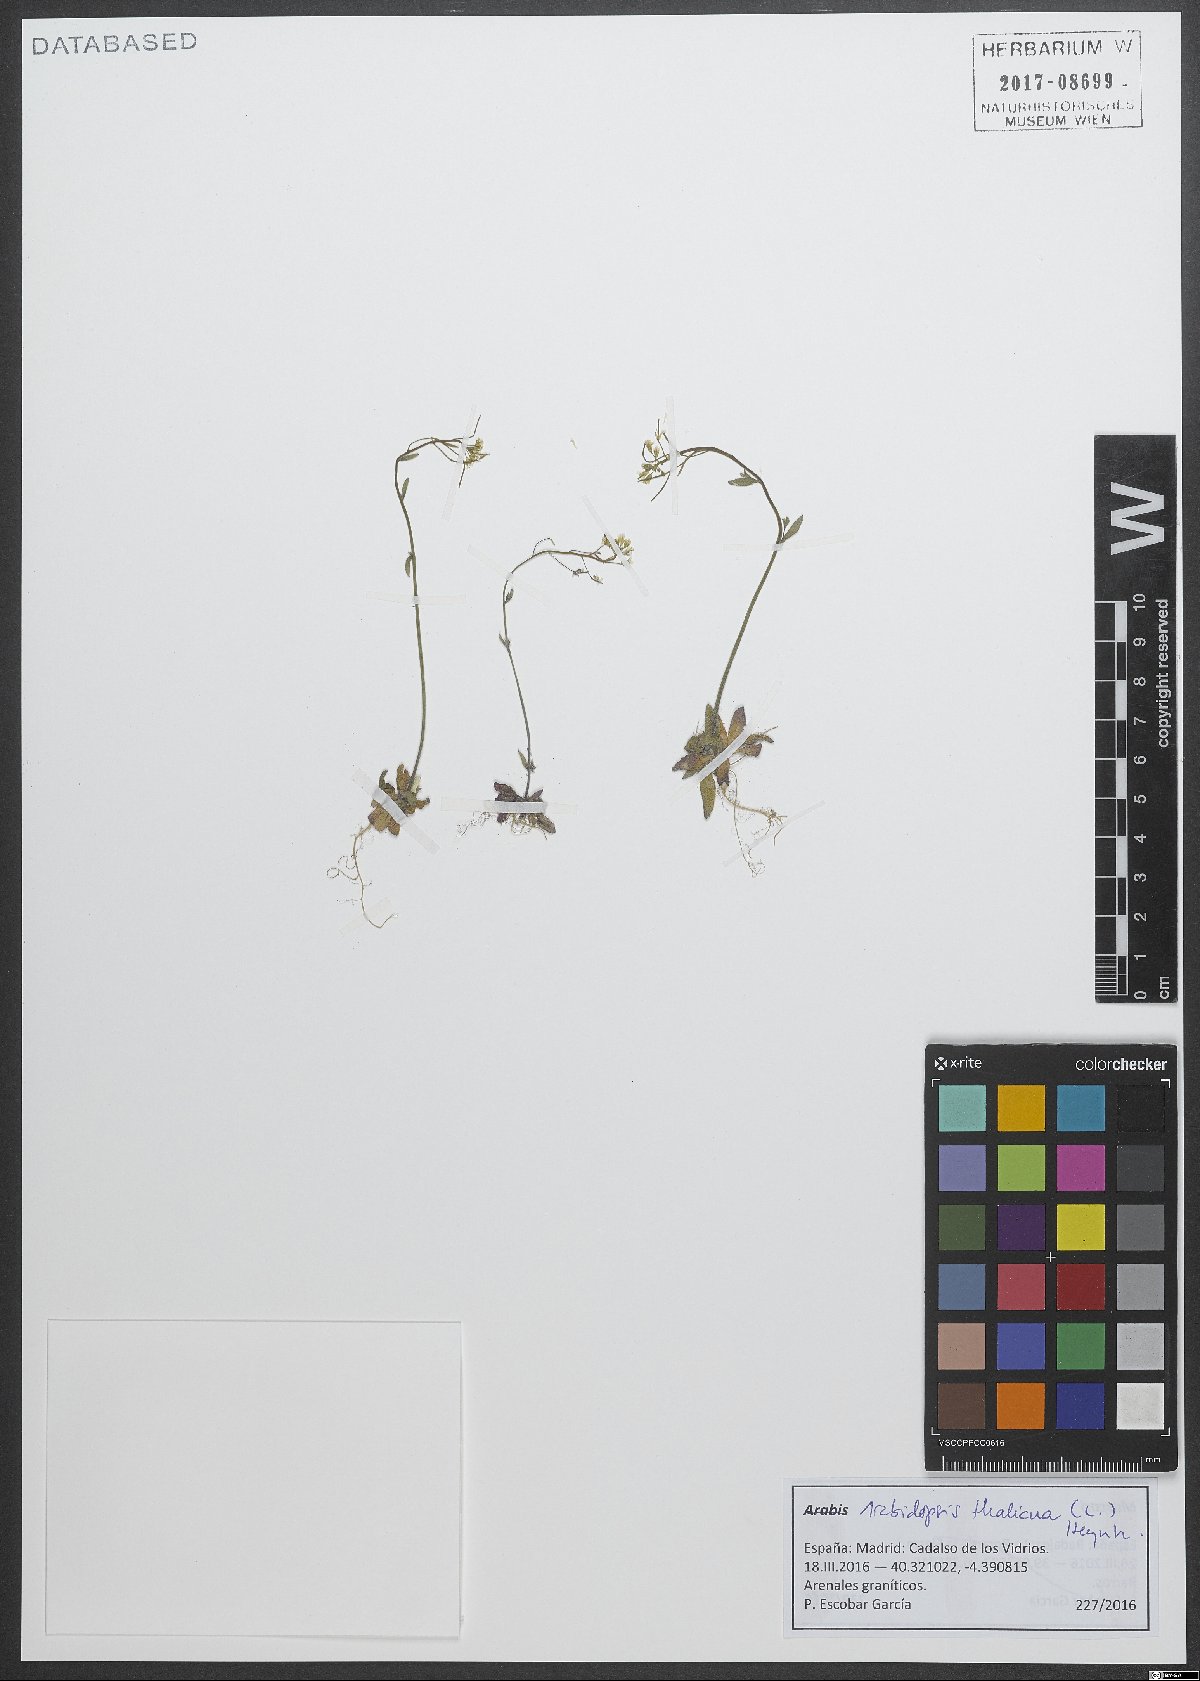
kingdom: Plantae
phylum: Tracheophyta
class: Magnoliopsida
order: Brassicales
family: Brassicaceae
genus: Arabidopsis
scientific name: Arabidopsis thaliana
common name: Thale cress
